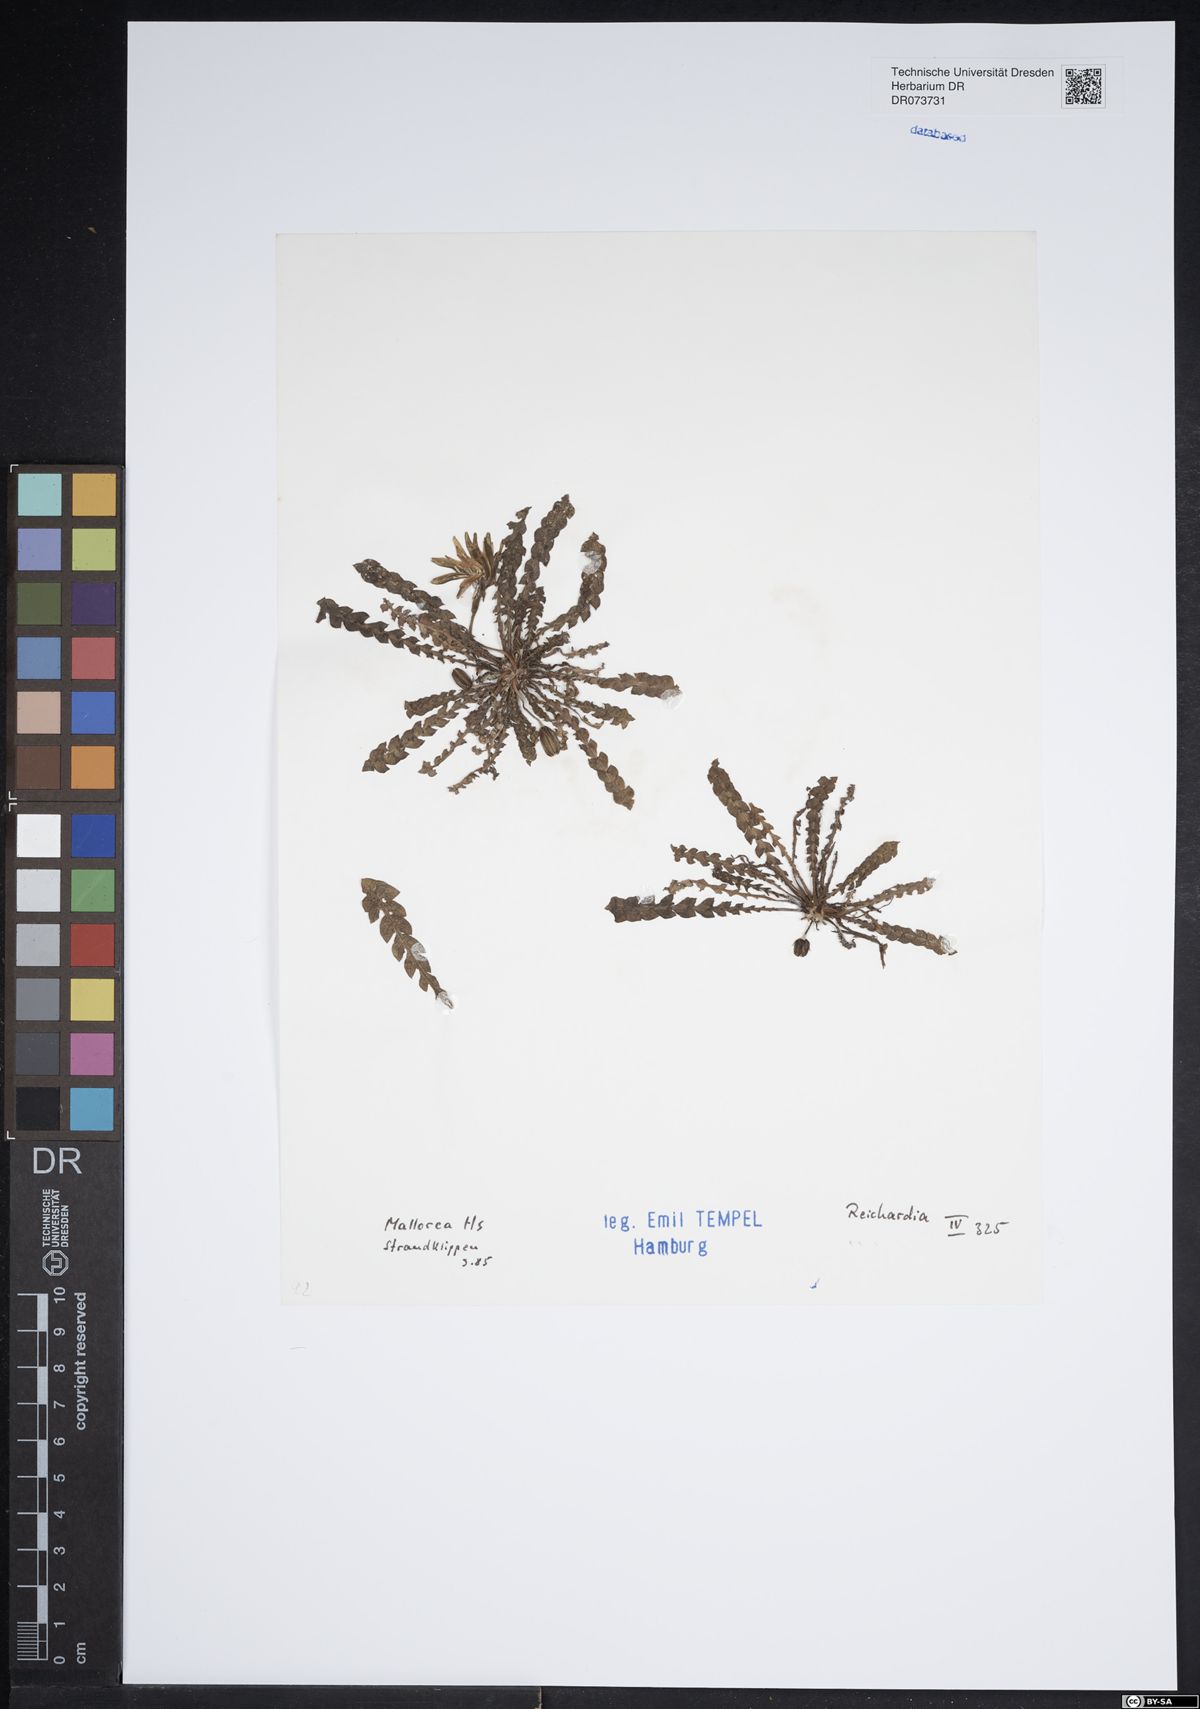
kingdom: Plantae
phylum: Tracheophyta
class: Magnoliopsida
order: Asterales
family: Asteraceae
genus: Reichardia
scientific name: Reichardia
